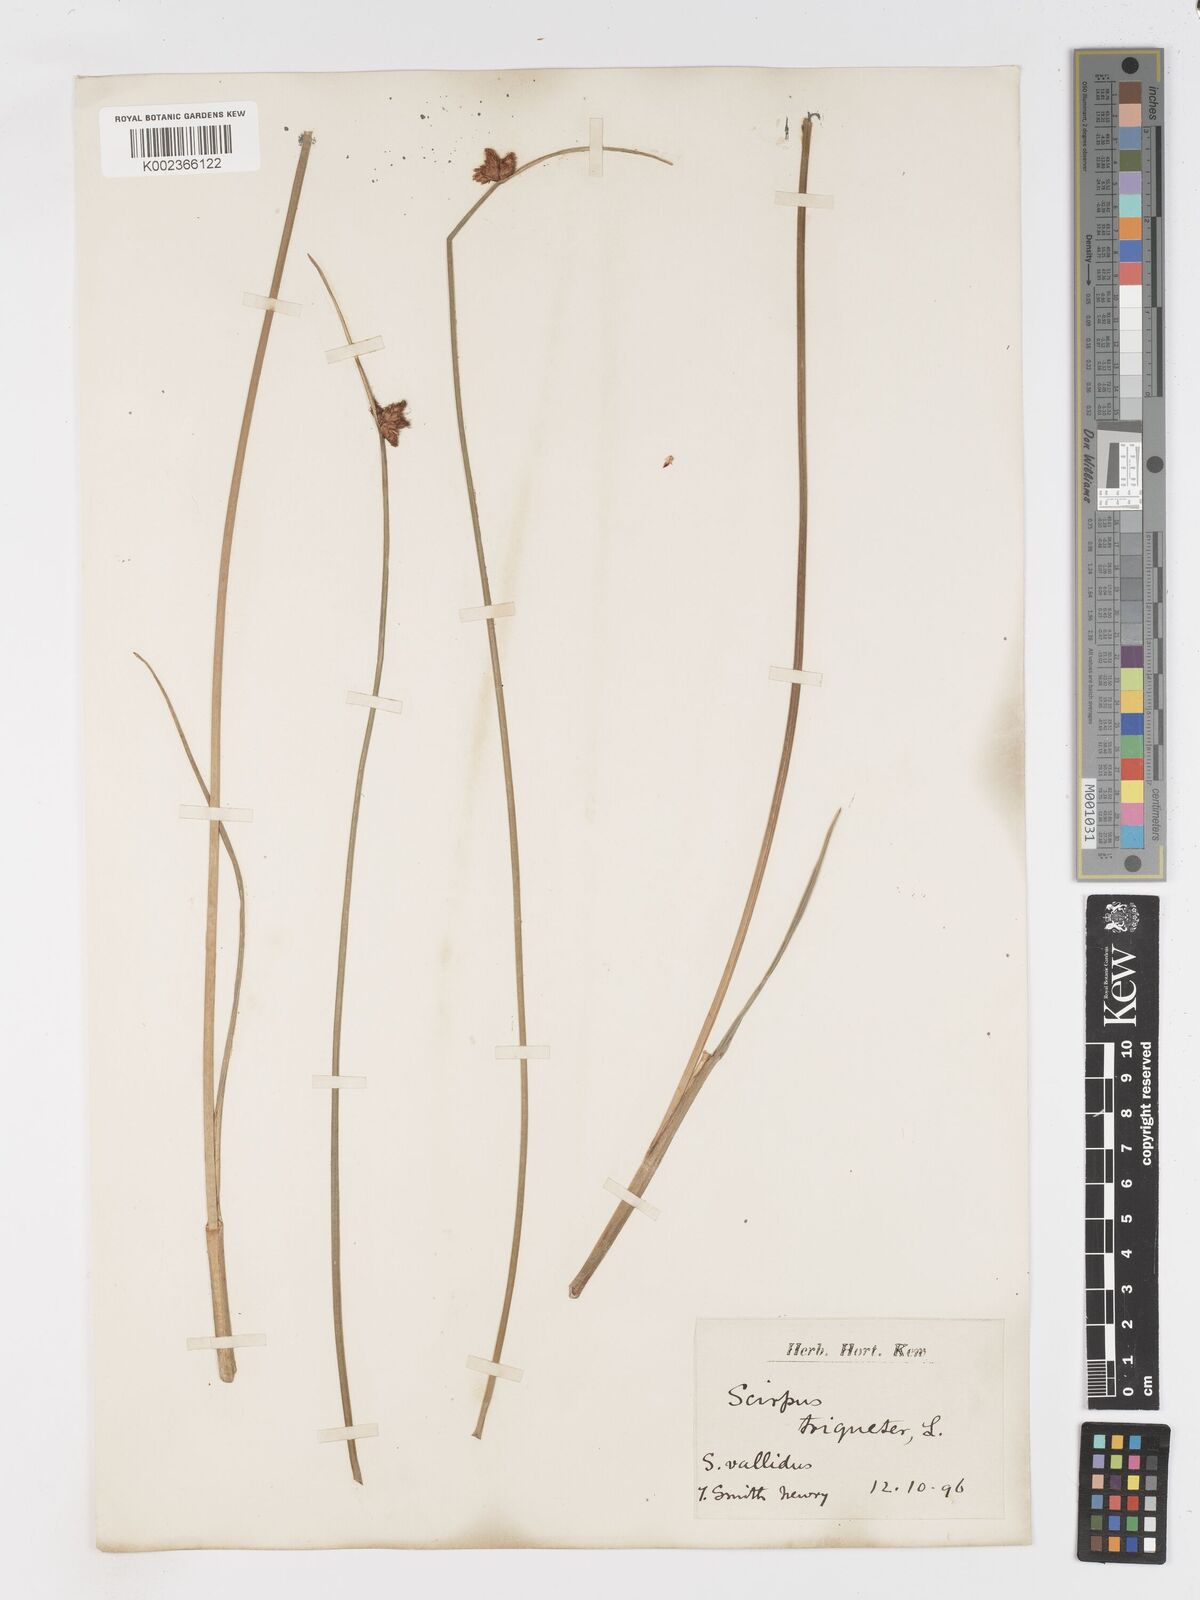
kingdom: Plantae
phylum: Tracheophyta
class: Liliopsida
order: Poales
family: Cyperaceae
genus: Schoenoplectus
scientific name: Schoenoplectus triqueter
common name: Triangular club-rush
